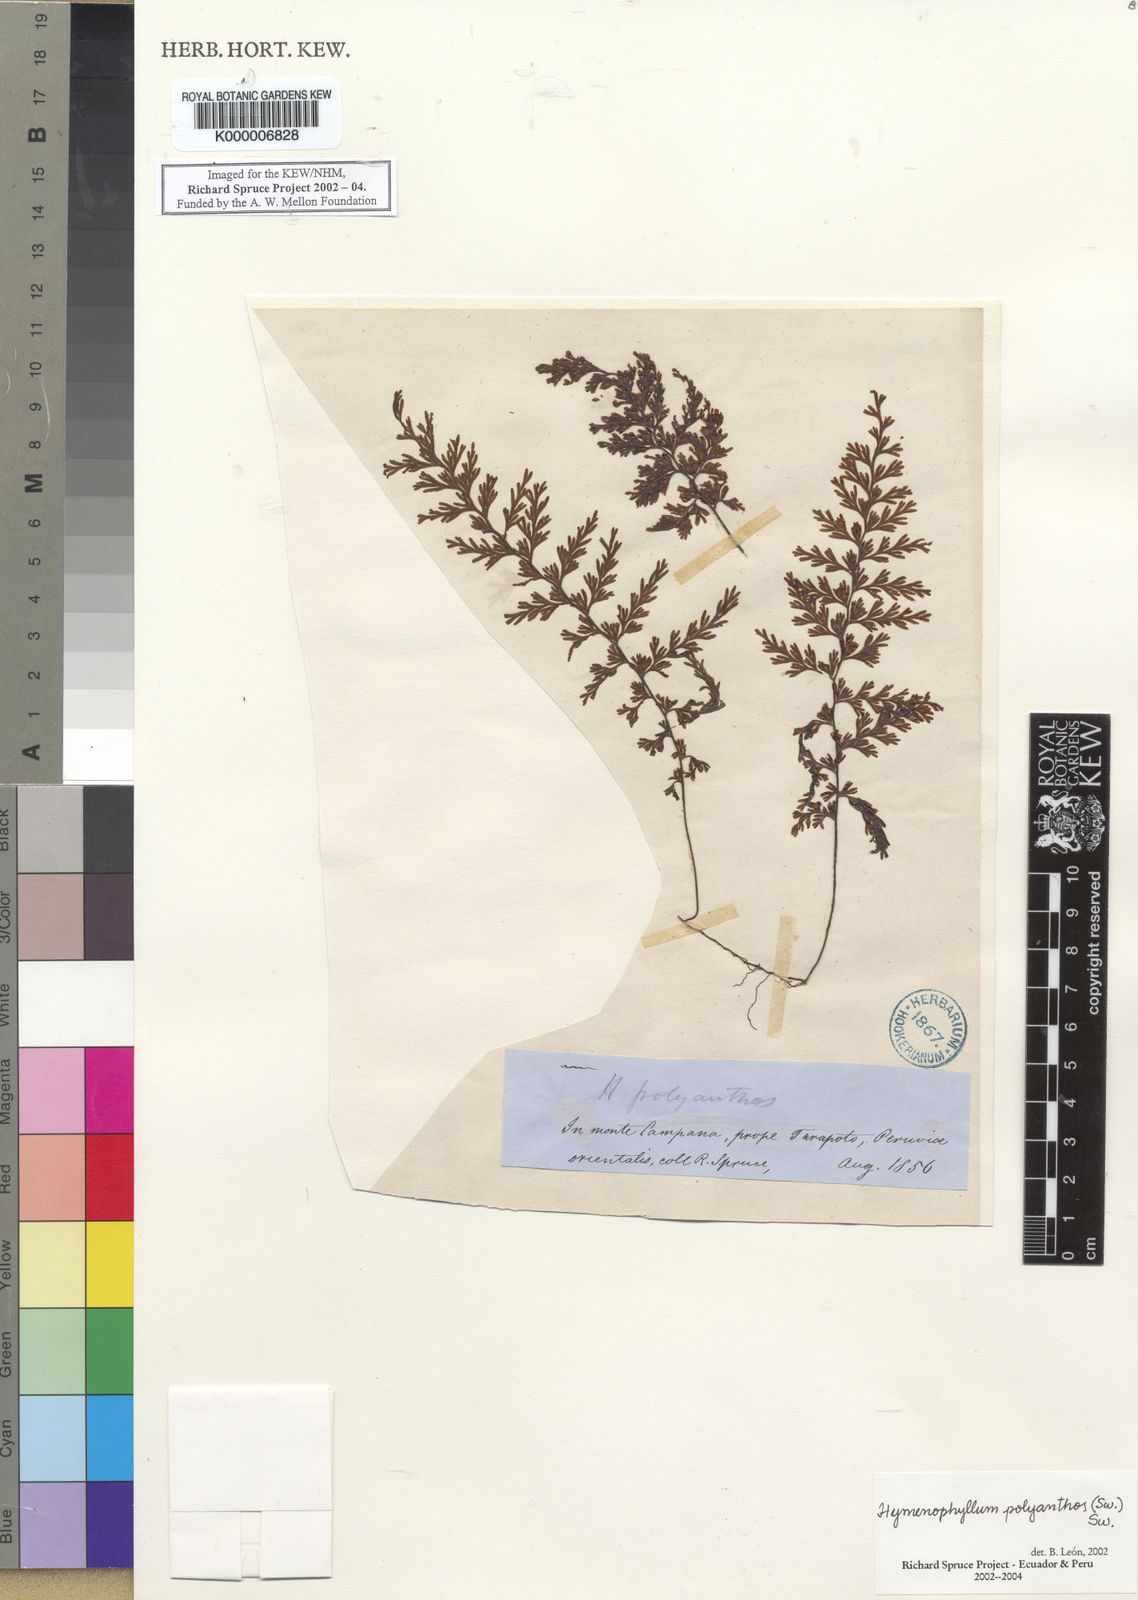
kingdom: Plantae
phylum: Tracheophyta
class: Polypodiopsida
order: Hymenophyllales
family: Hymenophyllaceae
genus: Hymenophyllum
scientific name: Hymenophyllum polyanthos
